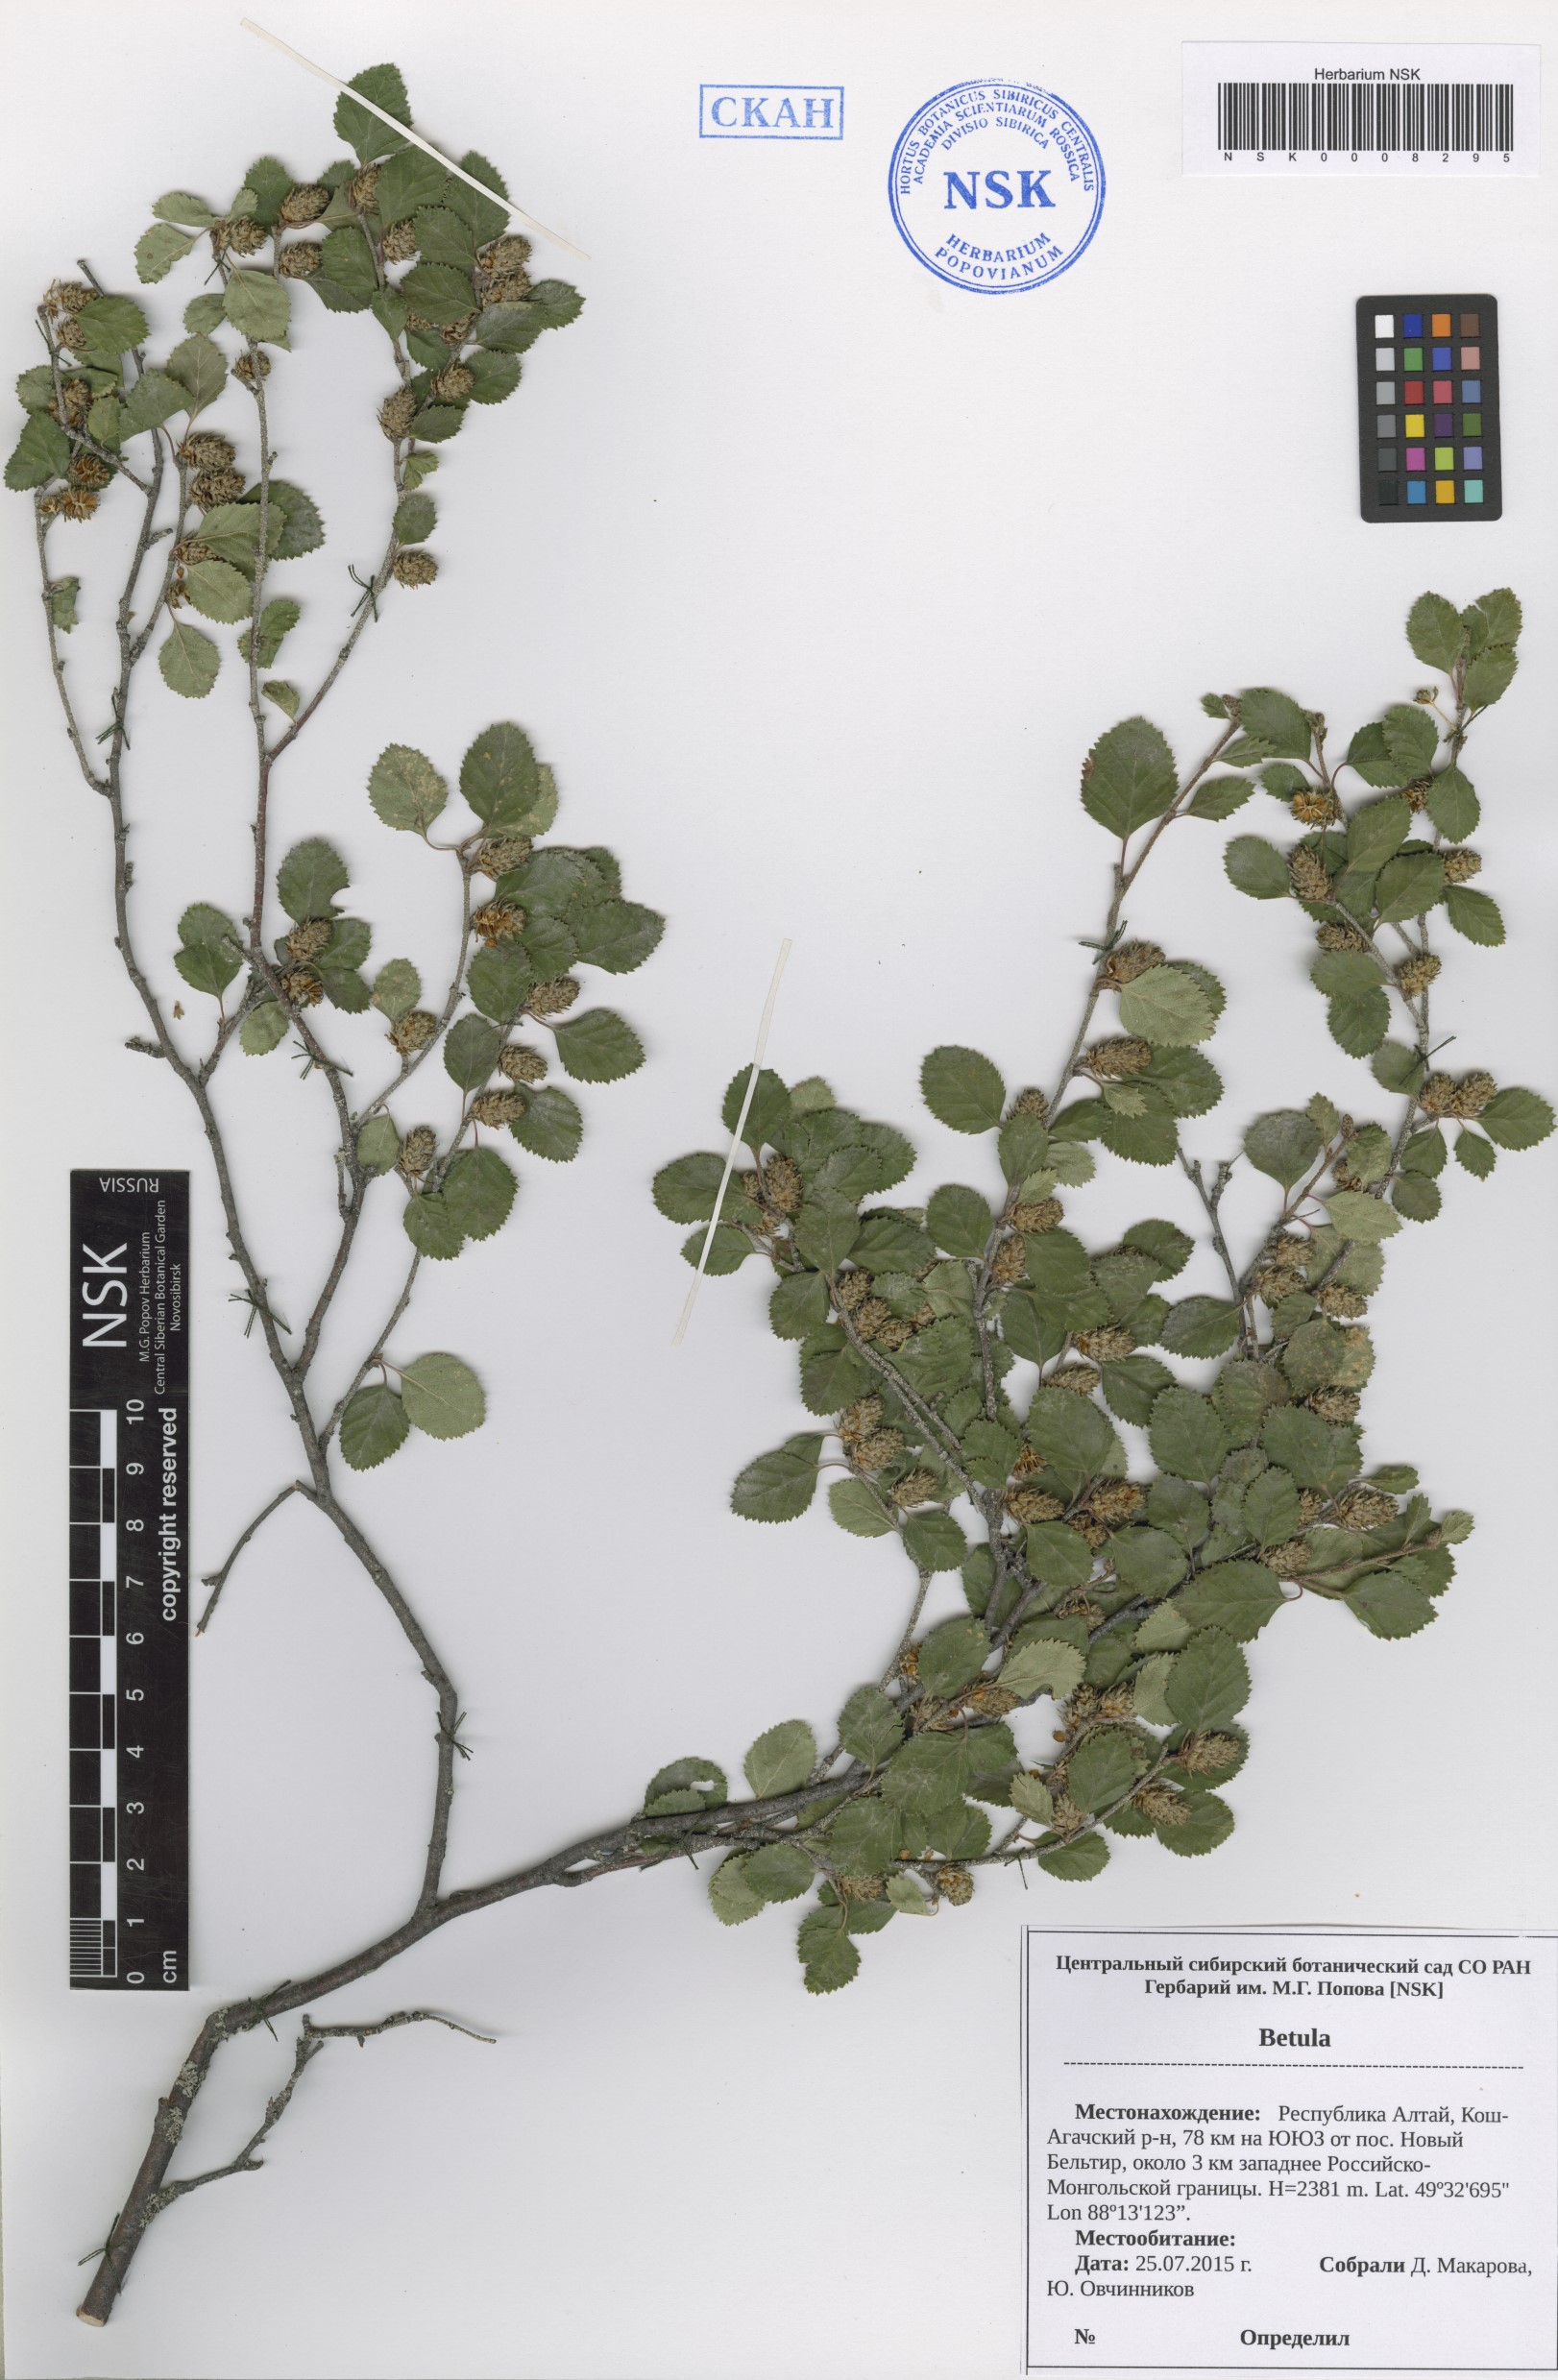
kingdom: Plantae
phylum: Tracheophyta
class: Magnoliopsida
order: Fagales
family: Betulaceae
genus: Betula
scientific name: Betula
